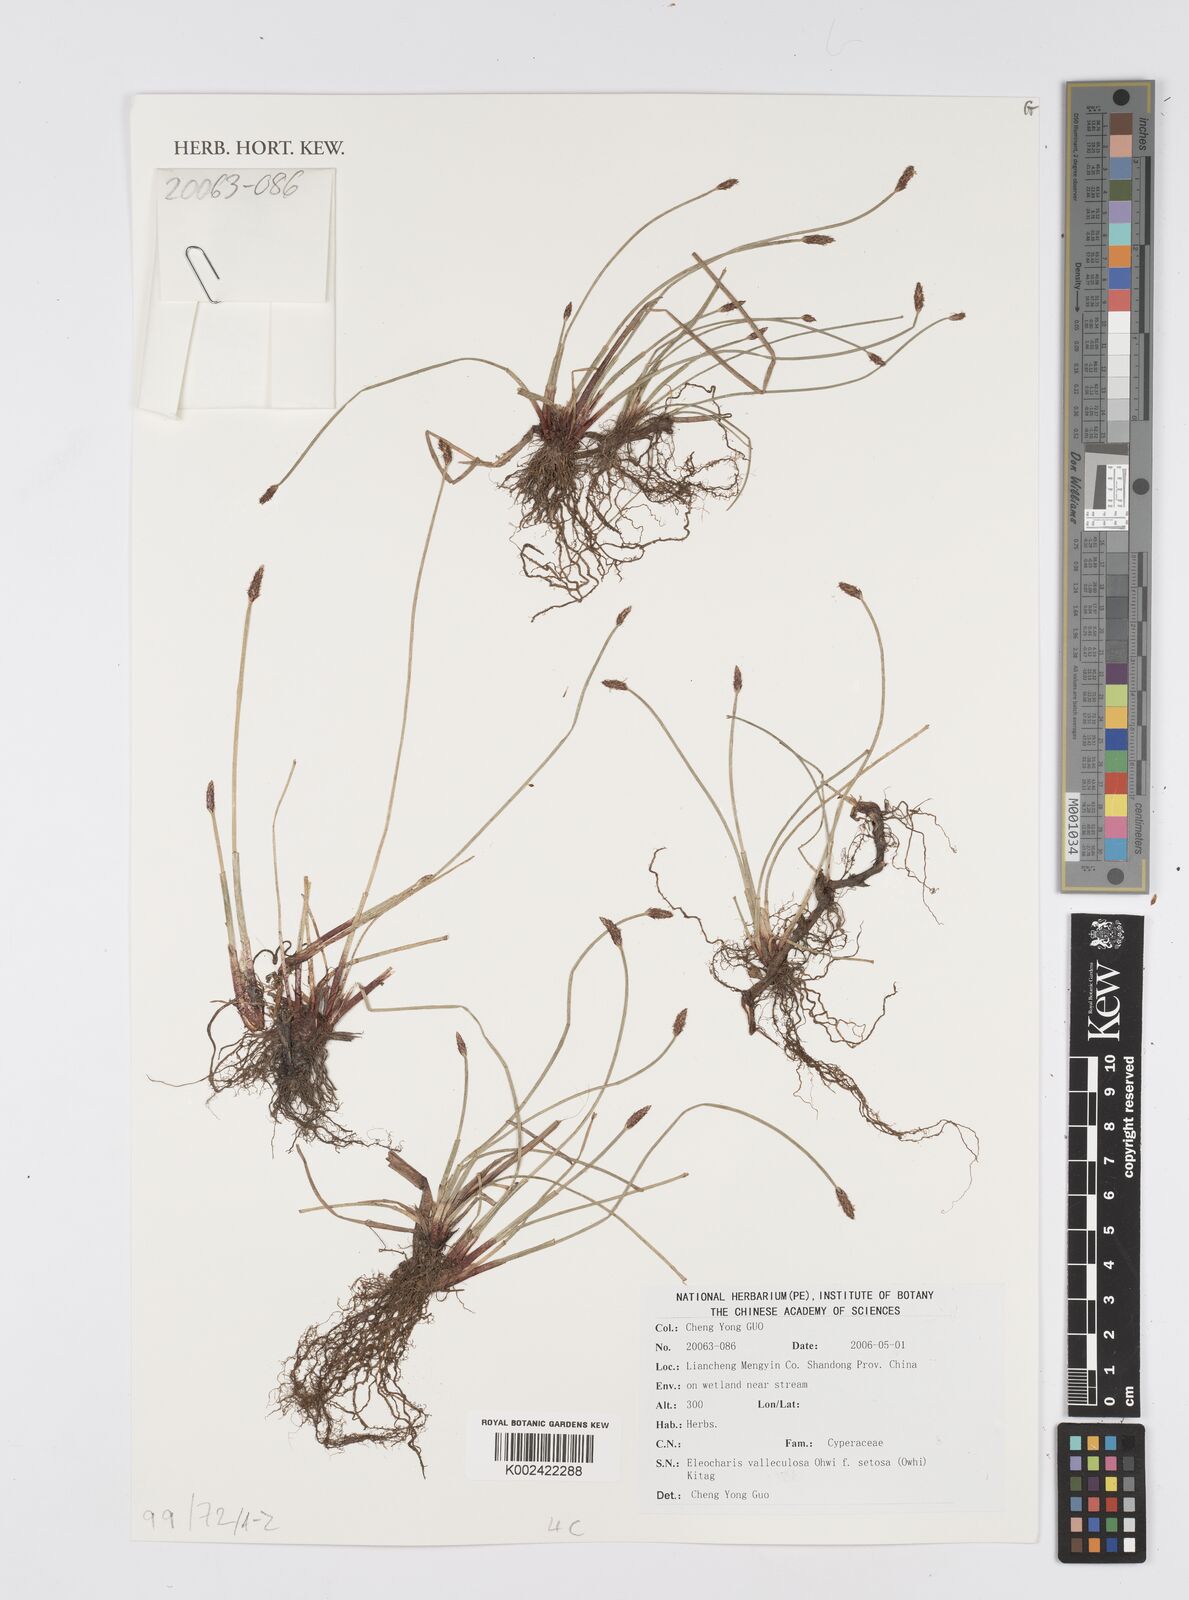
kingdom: Plantae
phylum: Tracheophyta
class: Liliopsida
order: Poales
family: Cyperaceae
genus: Eleocharis
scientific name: Eleocharis valleculosa
